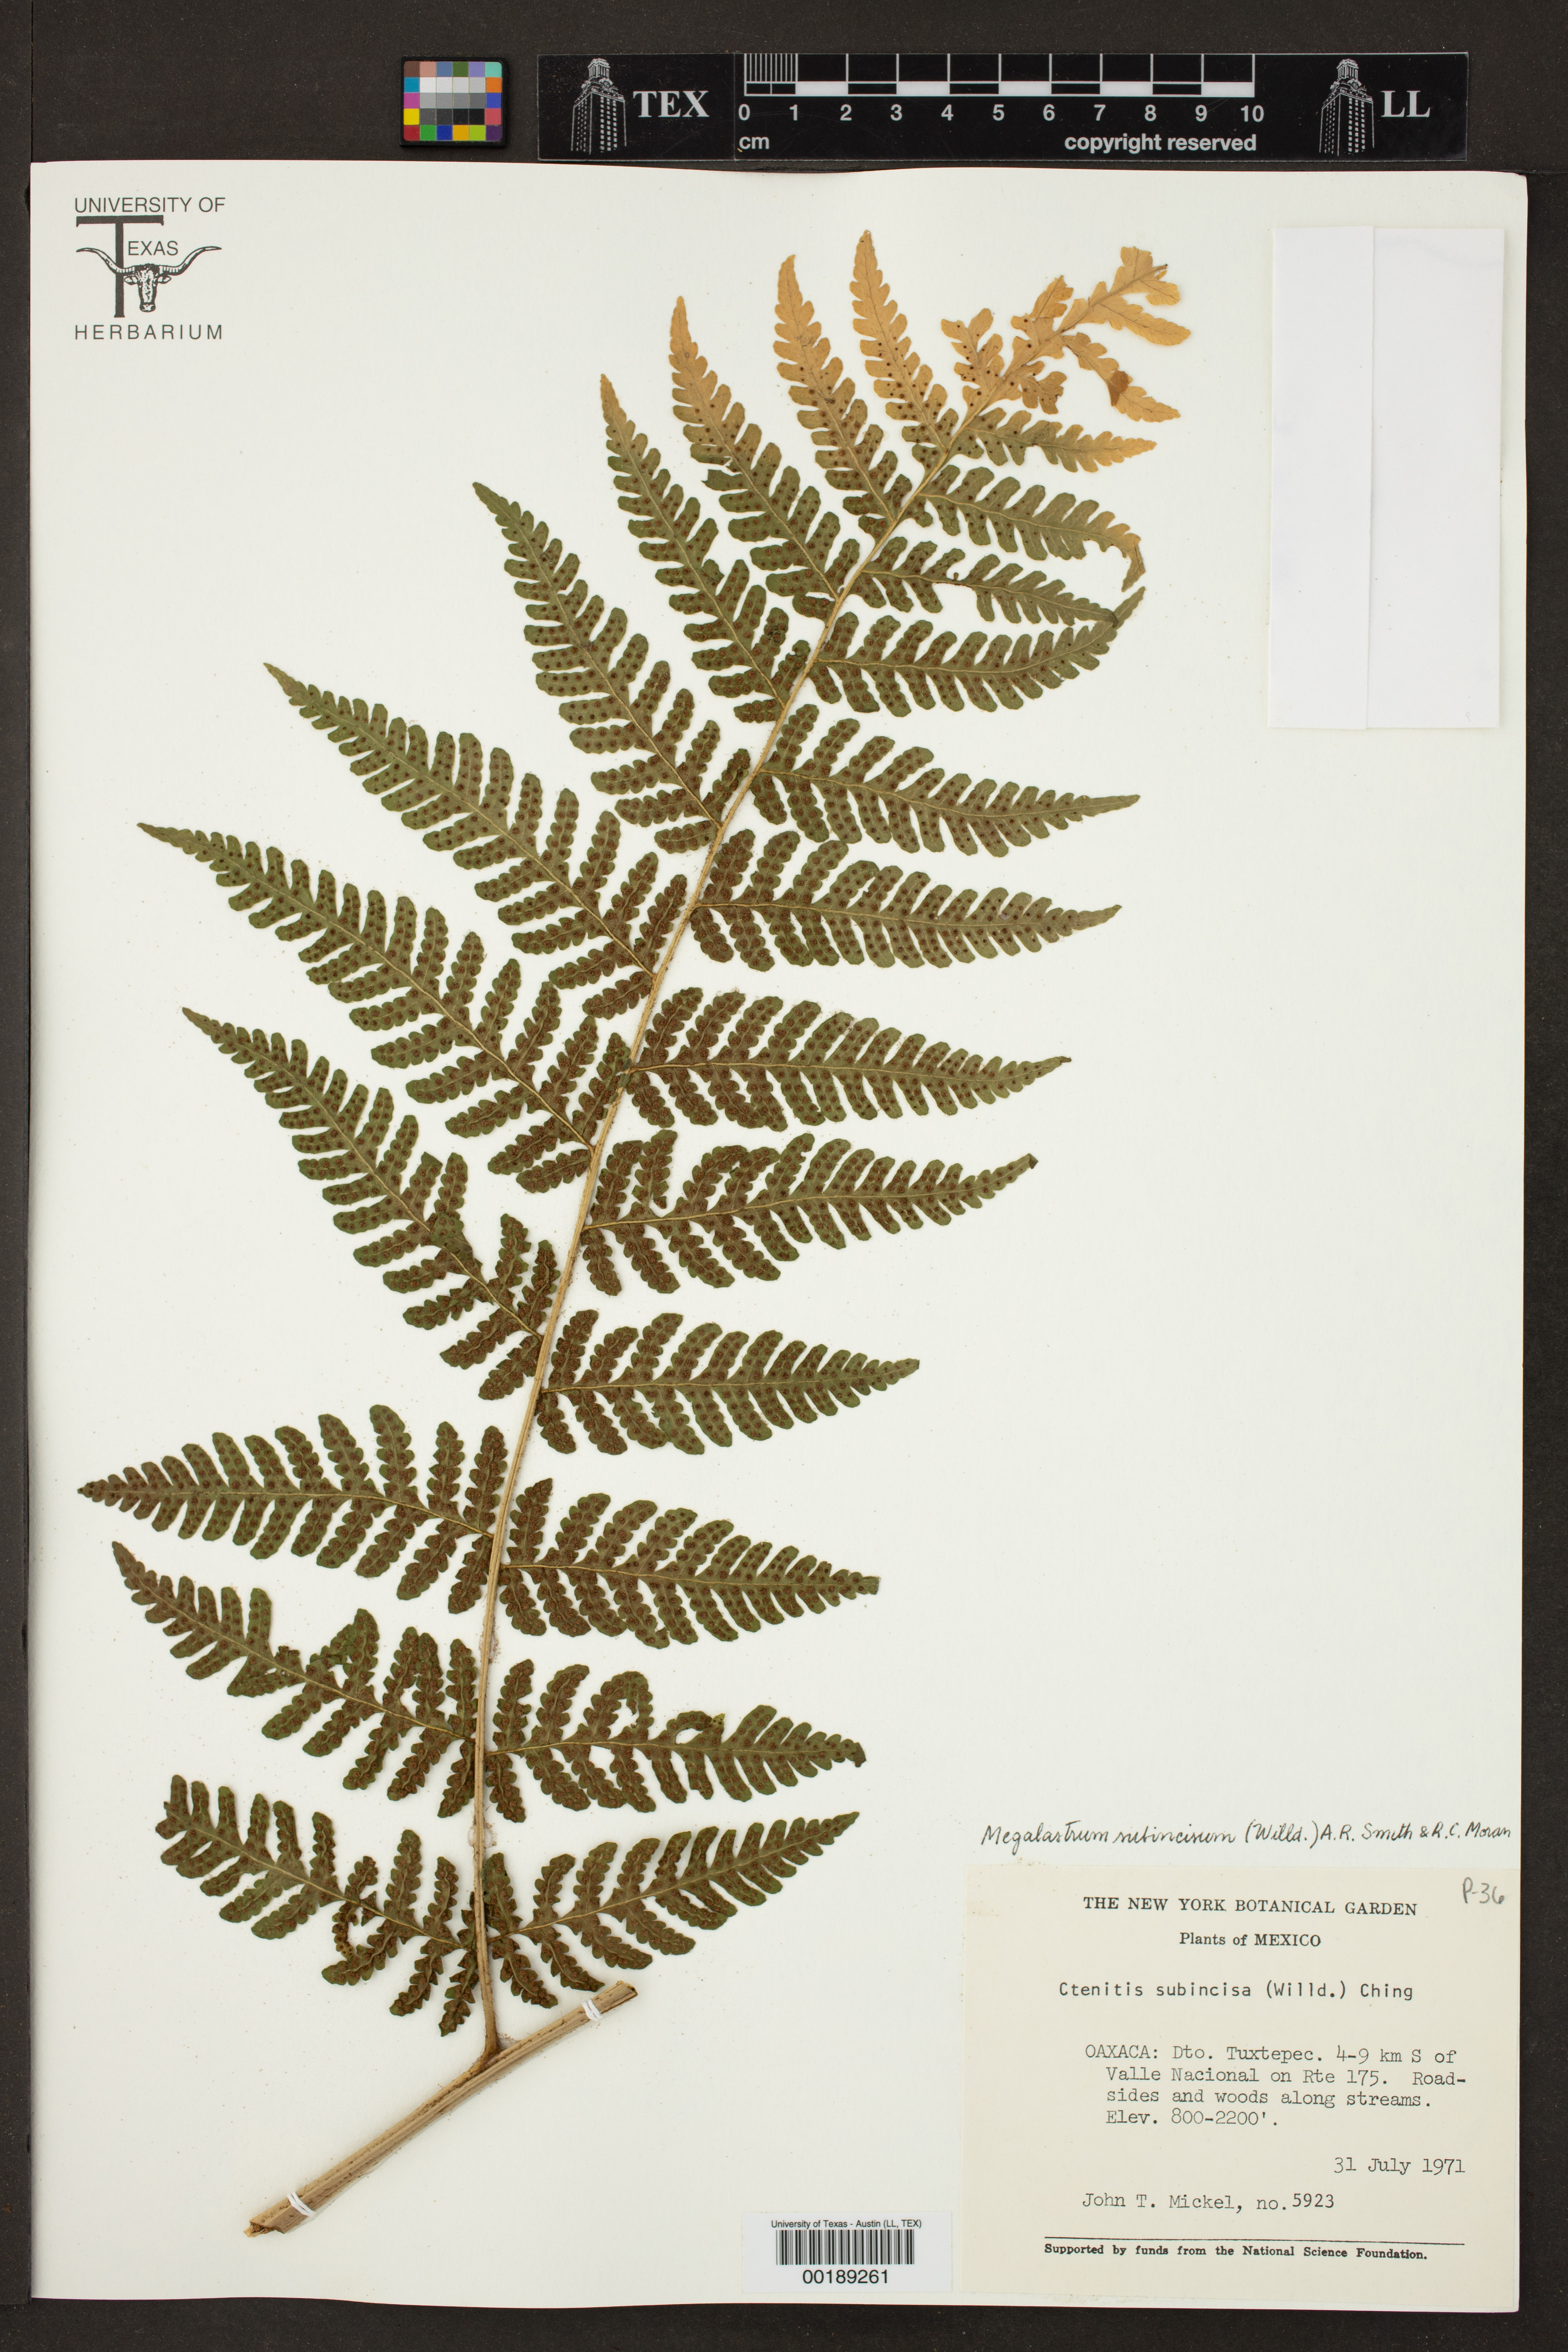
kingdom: Plantae
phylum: Tracheophyta
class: Polypodiopsida
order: Polypodiales
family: Dryopteridaceae
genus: Megalastrum
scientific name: Megalastrum subincisum
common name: Jagleaf junglefern
